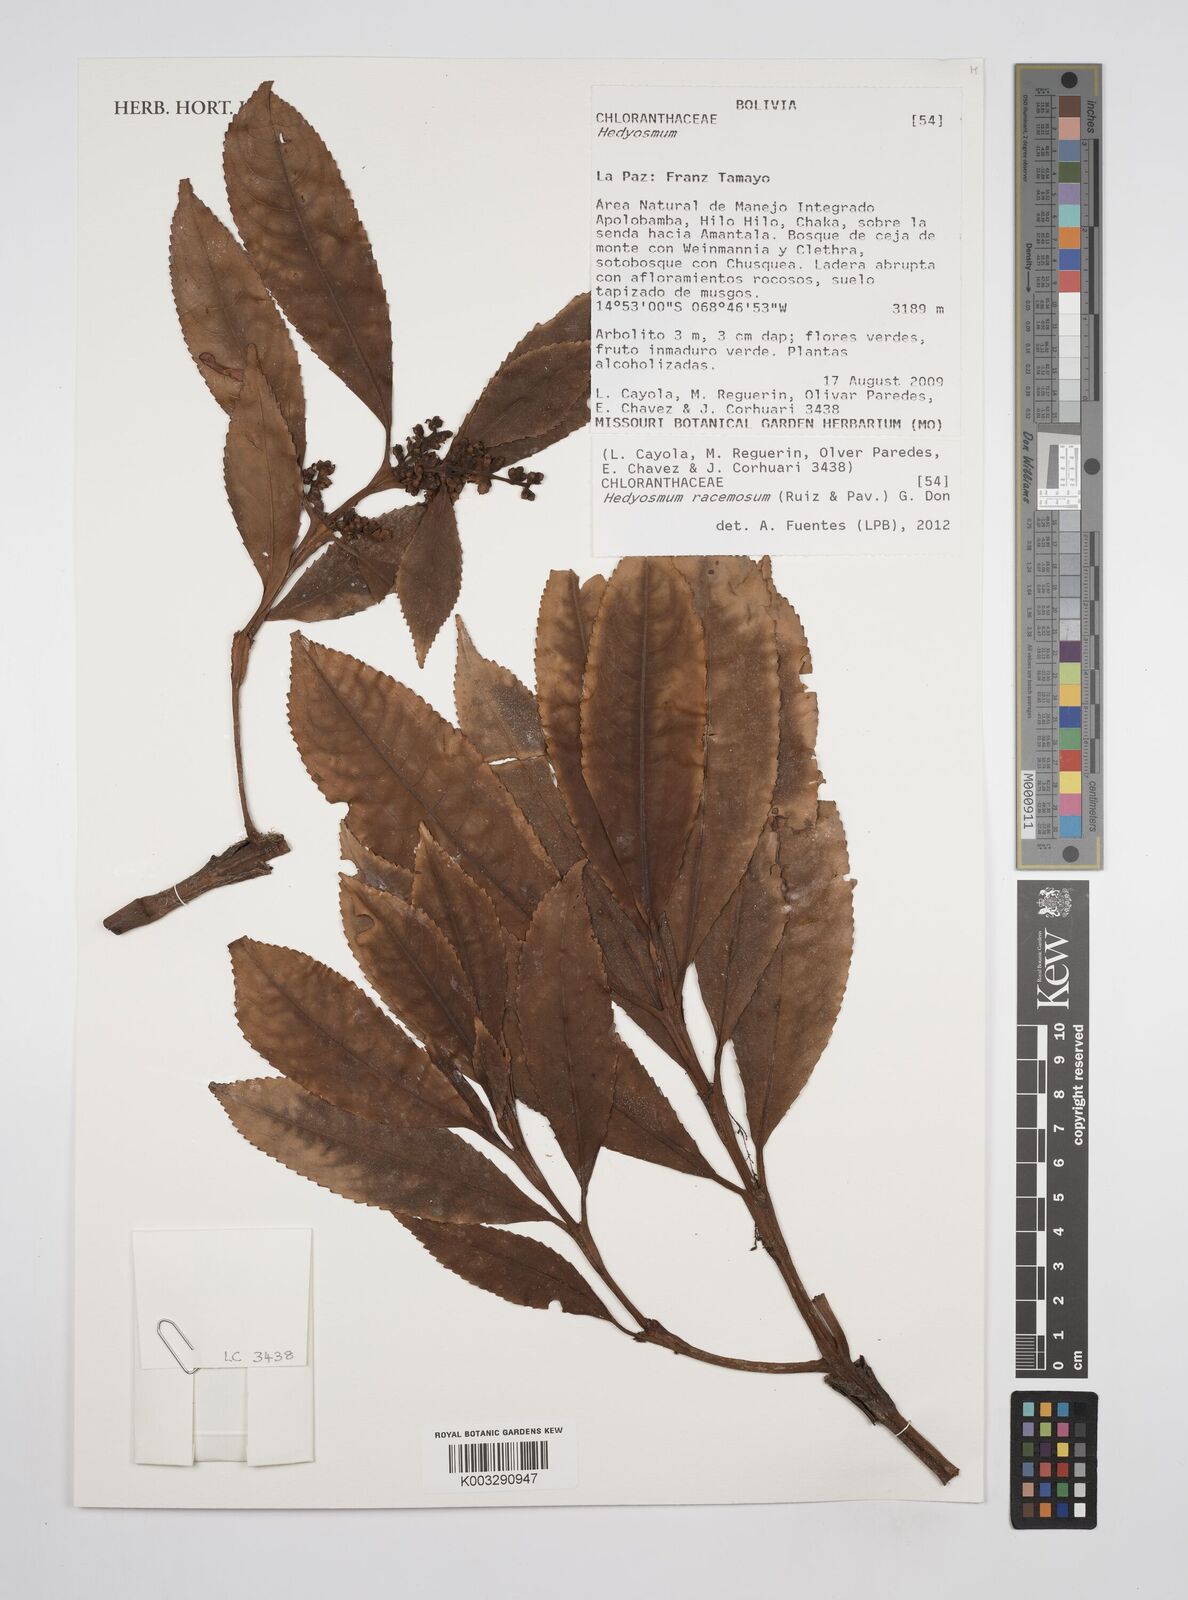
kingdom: Plantae
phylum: Tracheophyta
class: Magnoliopsida
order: Chloranthales
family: Chloranthaceae
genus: Hedyosmum
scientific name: Hedyosmum racemosum
